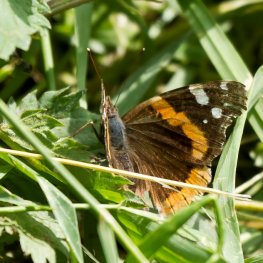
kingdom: Animalia
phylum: Arthropoda
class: Insecta
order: Lepidoptera
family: Nymphalidae
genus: Vanessa
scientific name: Vanessa atalanta
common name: Red Admiral
